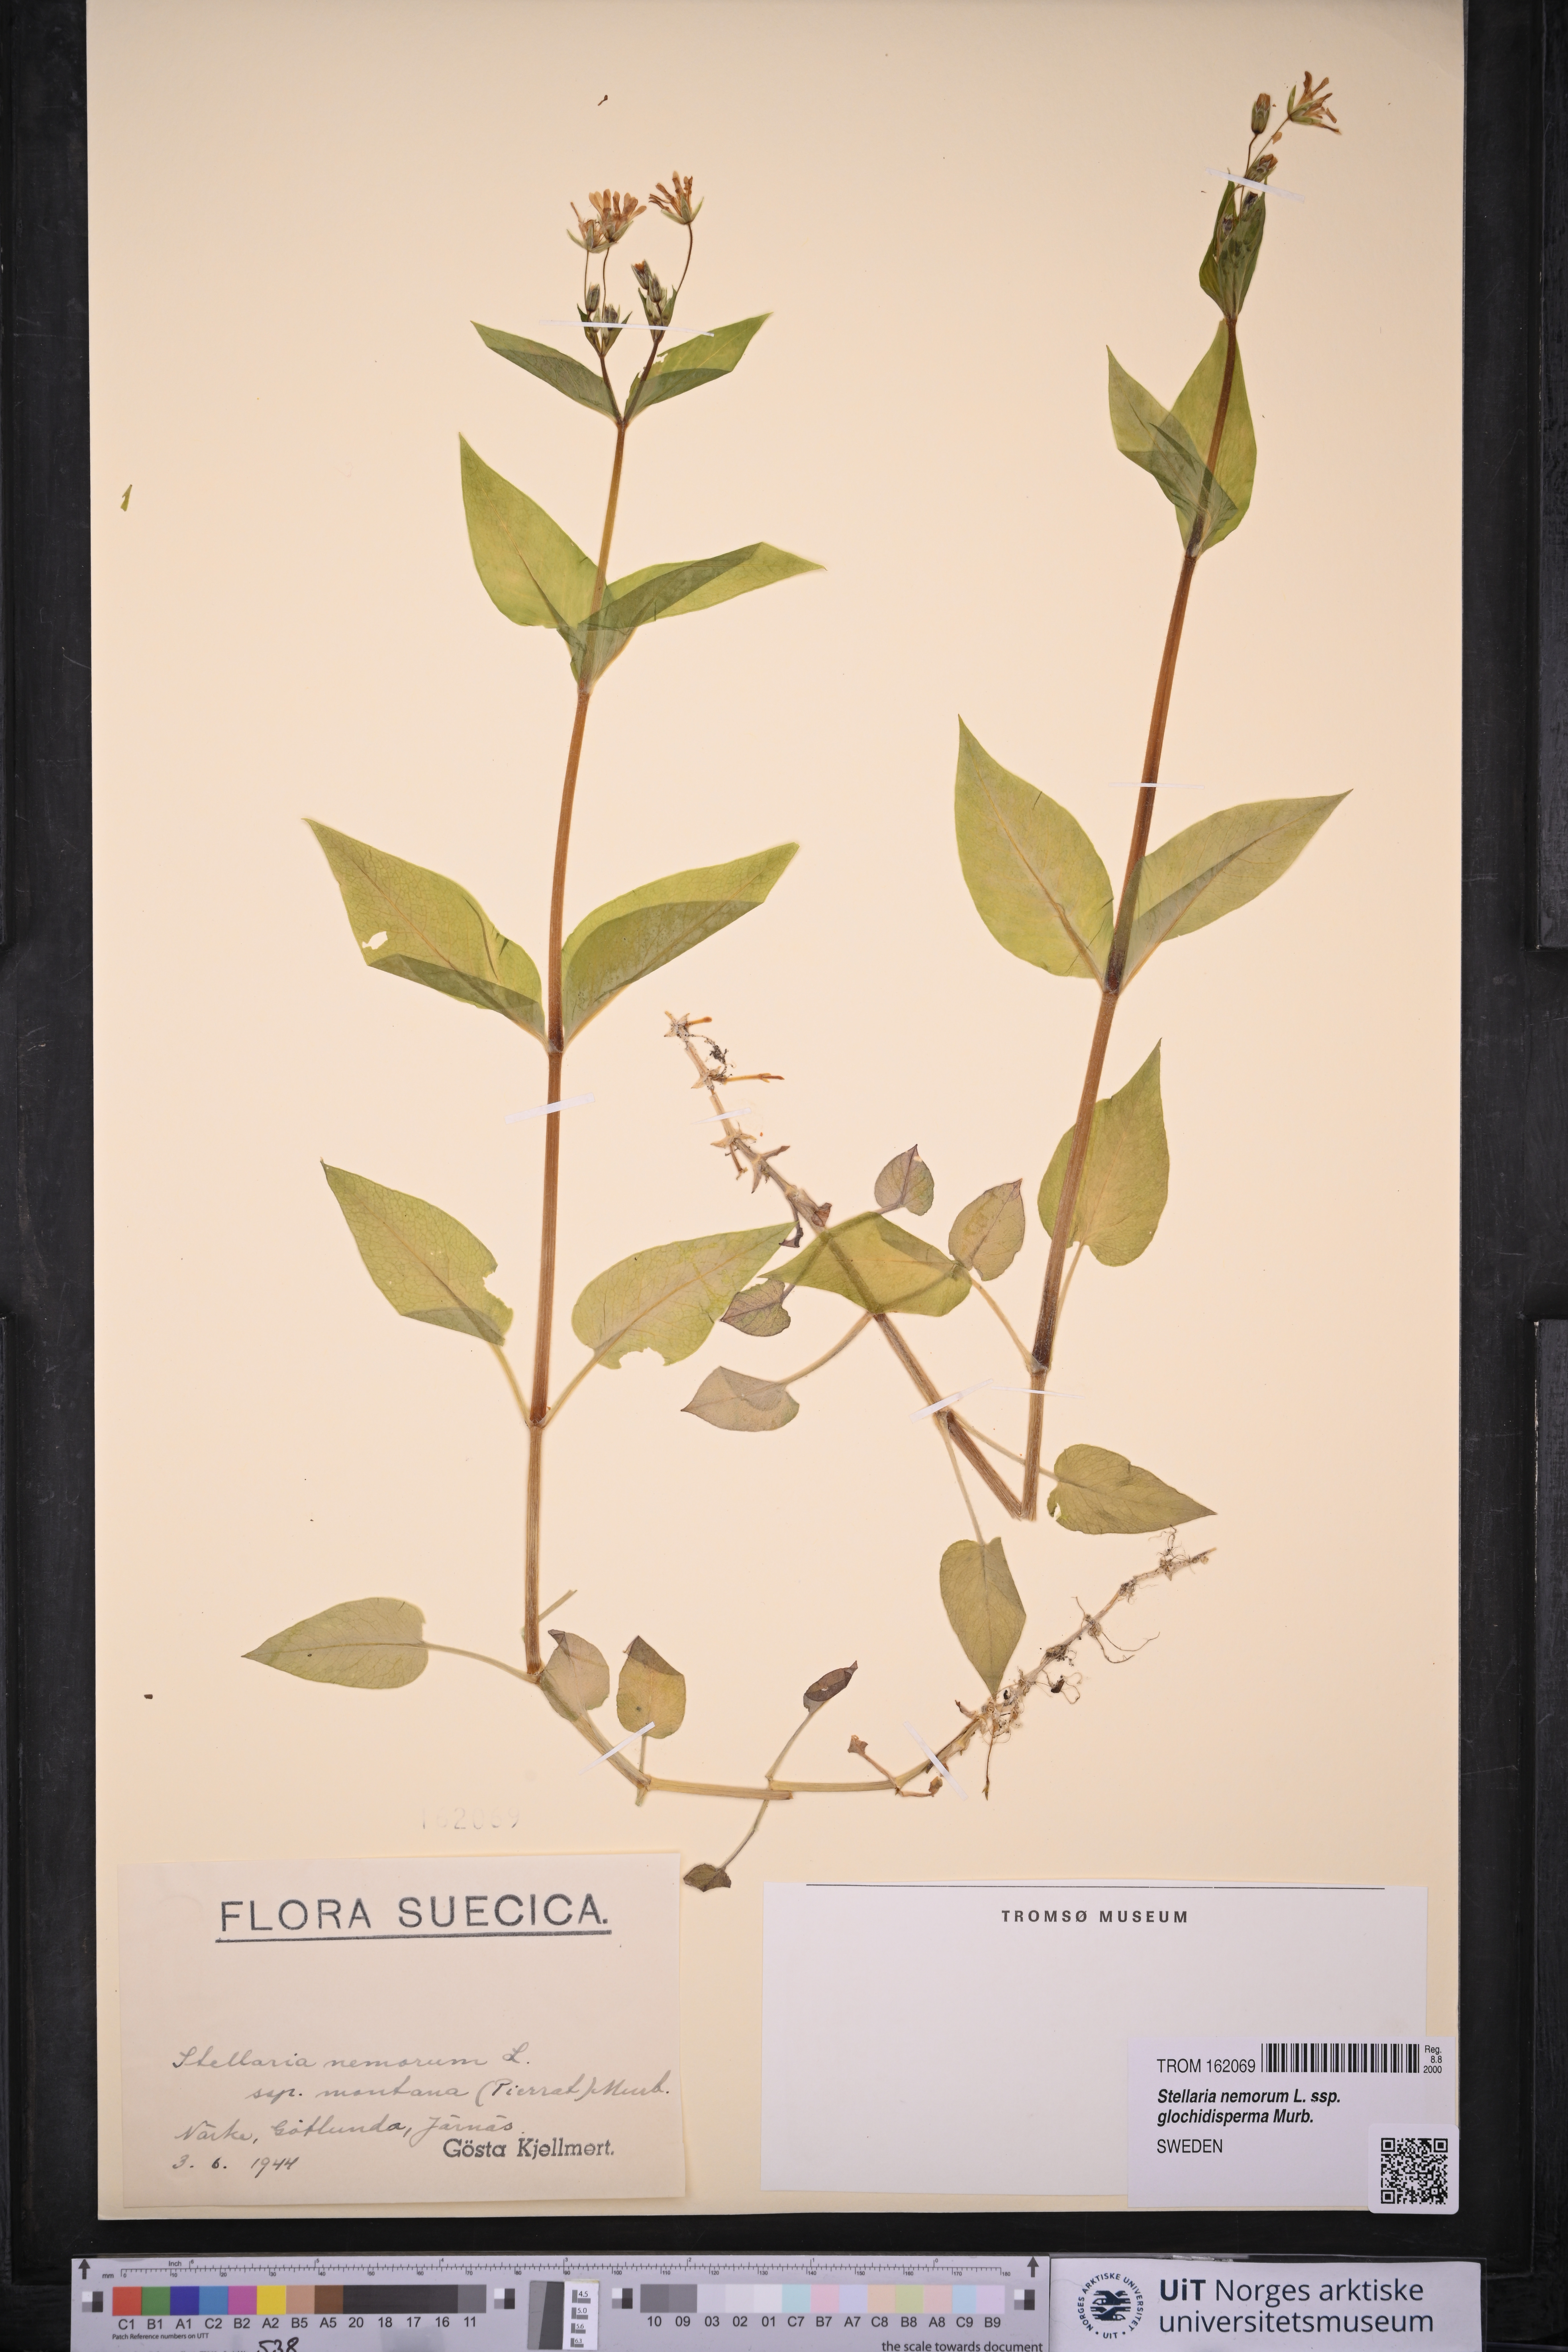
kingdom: Plantae
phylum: Tracheophyta
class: Magnoliopsida
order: Caryophyllales
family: Caryophyllaceae
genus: Stellaria
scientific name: Stellaria glochidisperma
